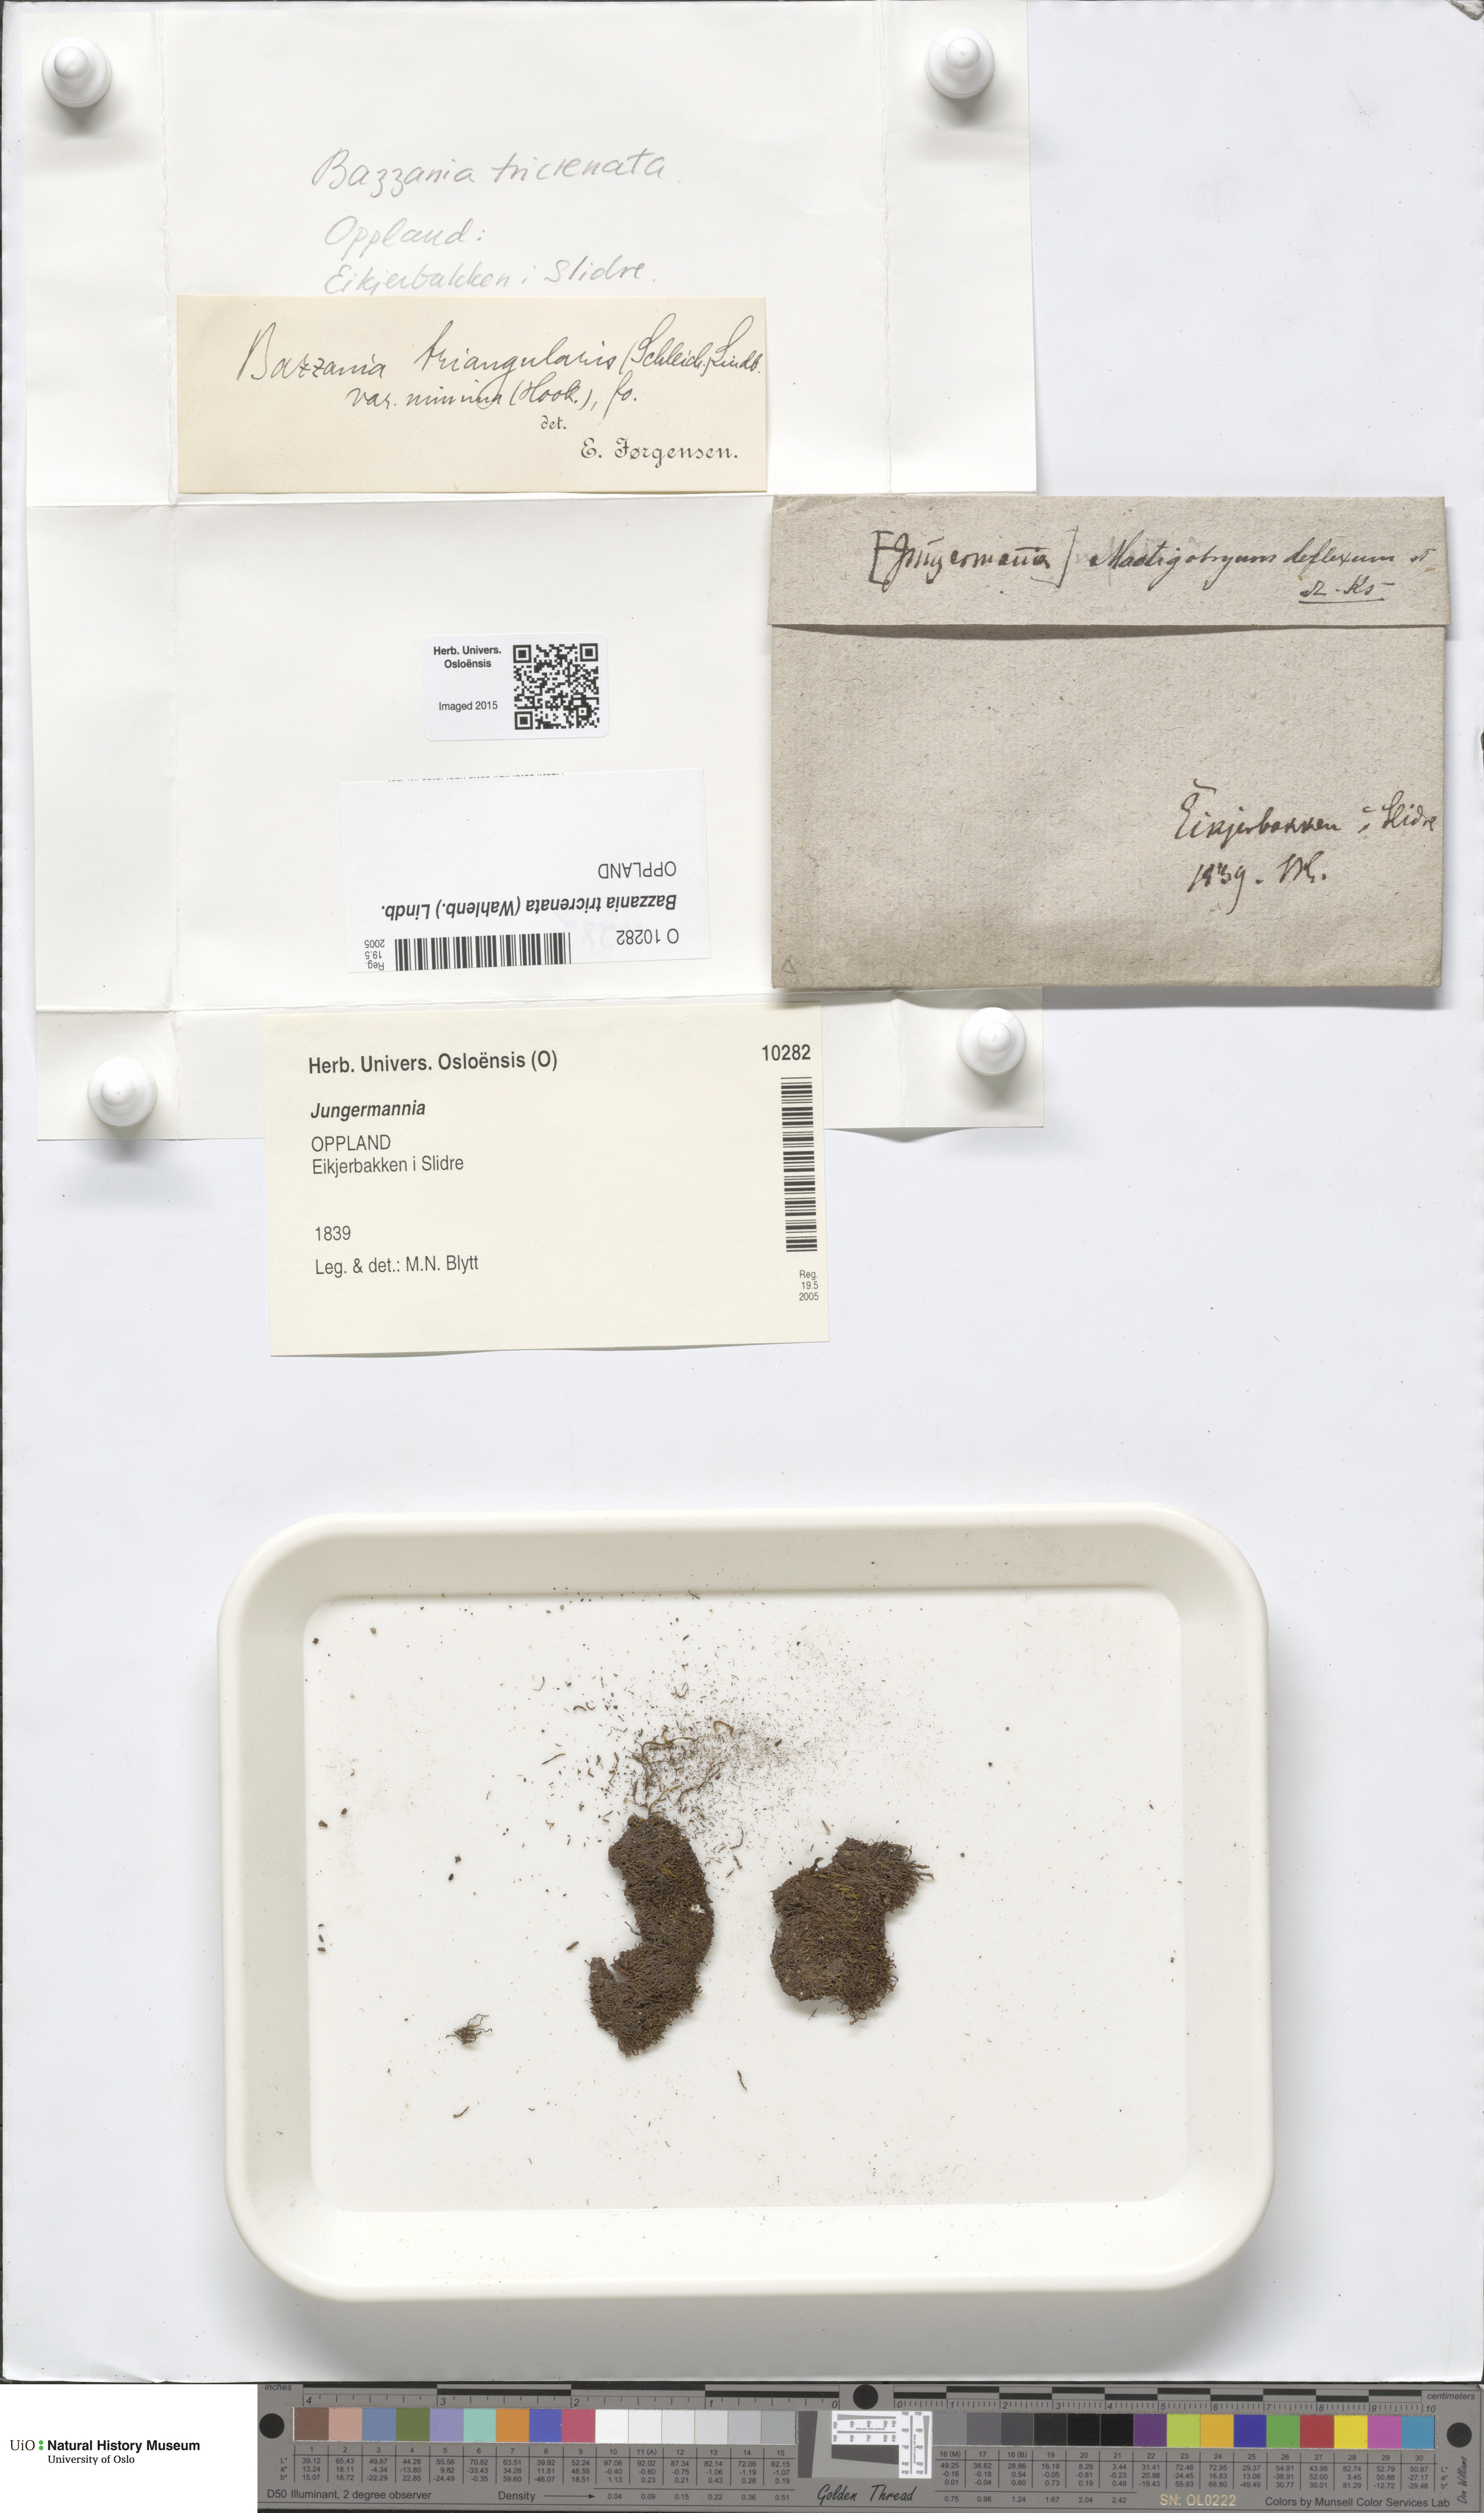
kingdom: Plantae
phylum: Marchantiophyta
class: Jungermanniopsida
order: Jungermanniales
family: Lepidoziaceae
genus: Bazzania
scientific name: Bazzania tricrenata
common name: Lesser whipwort
